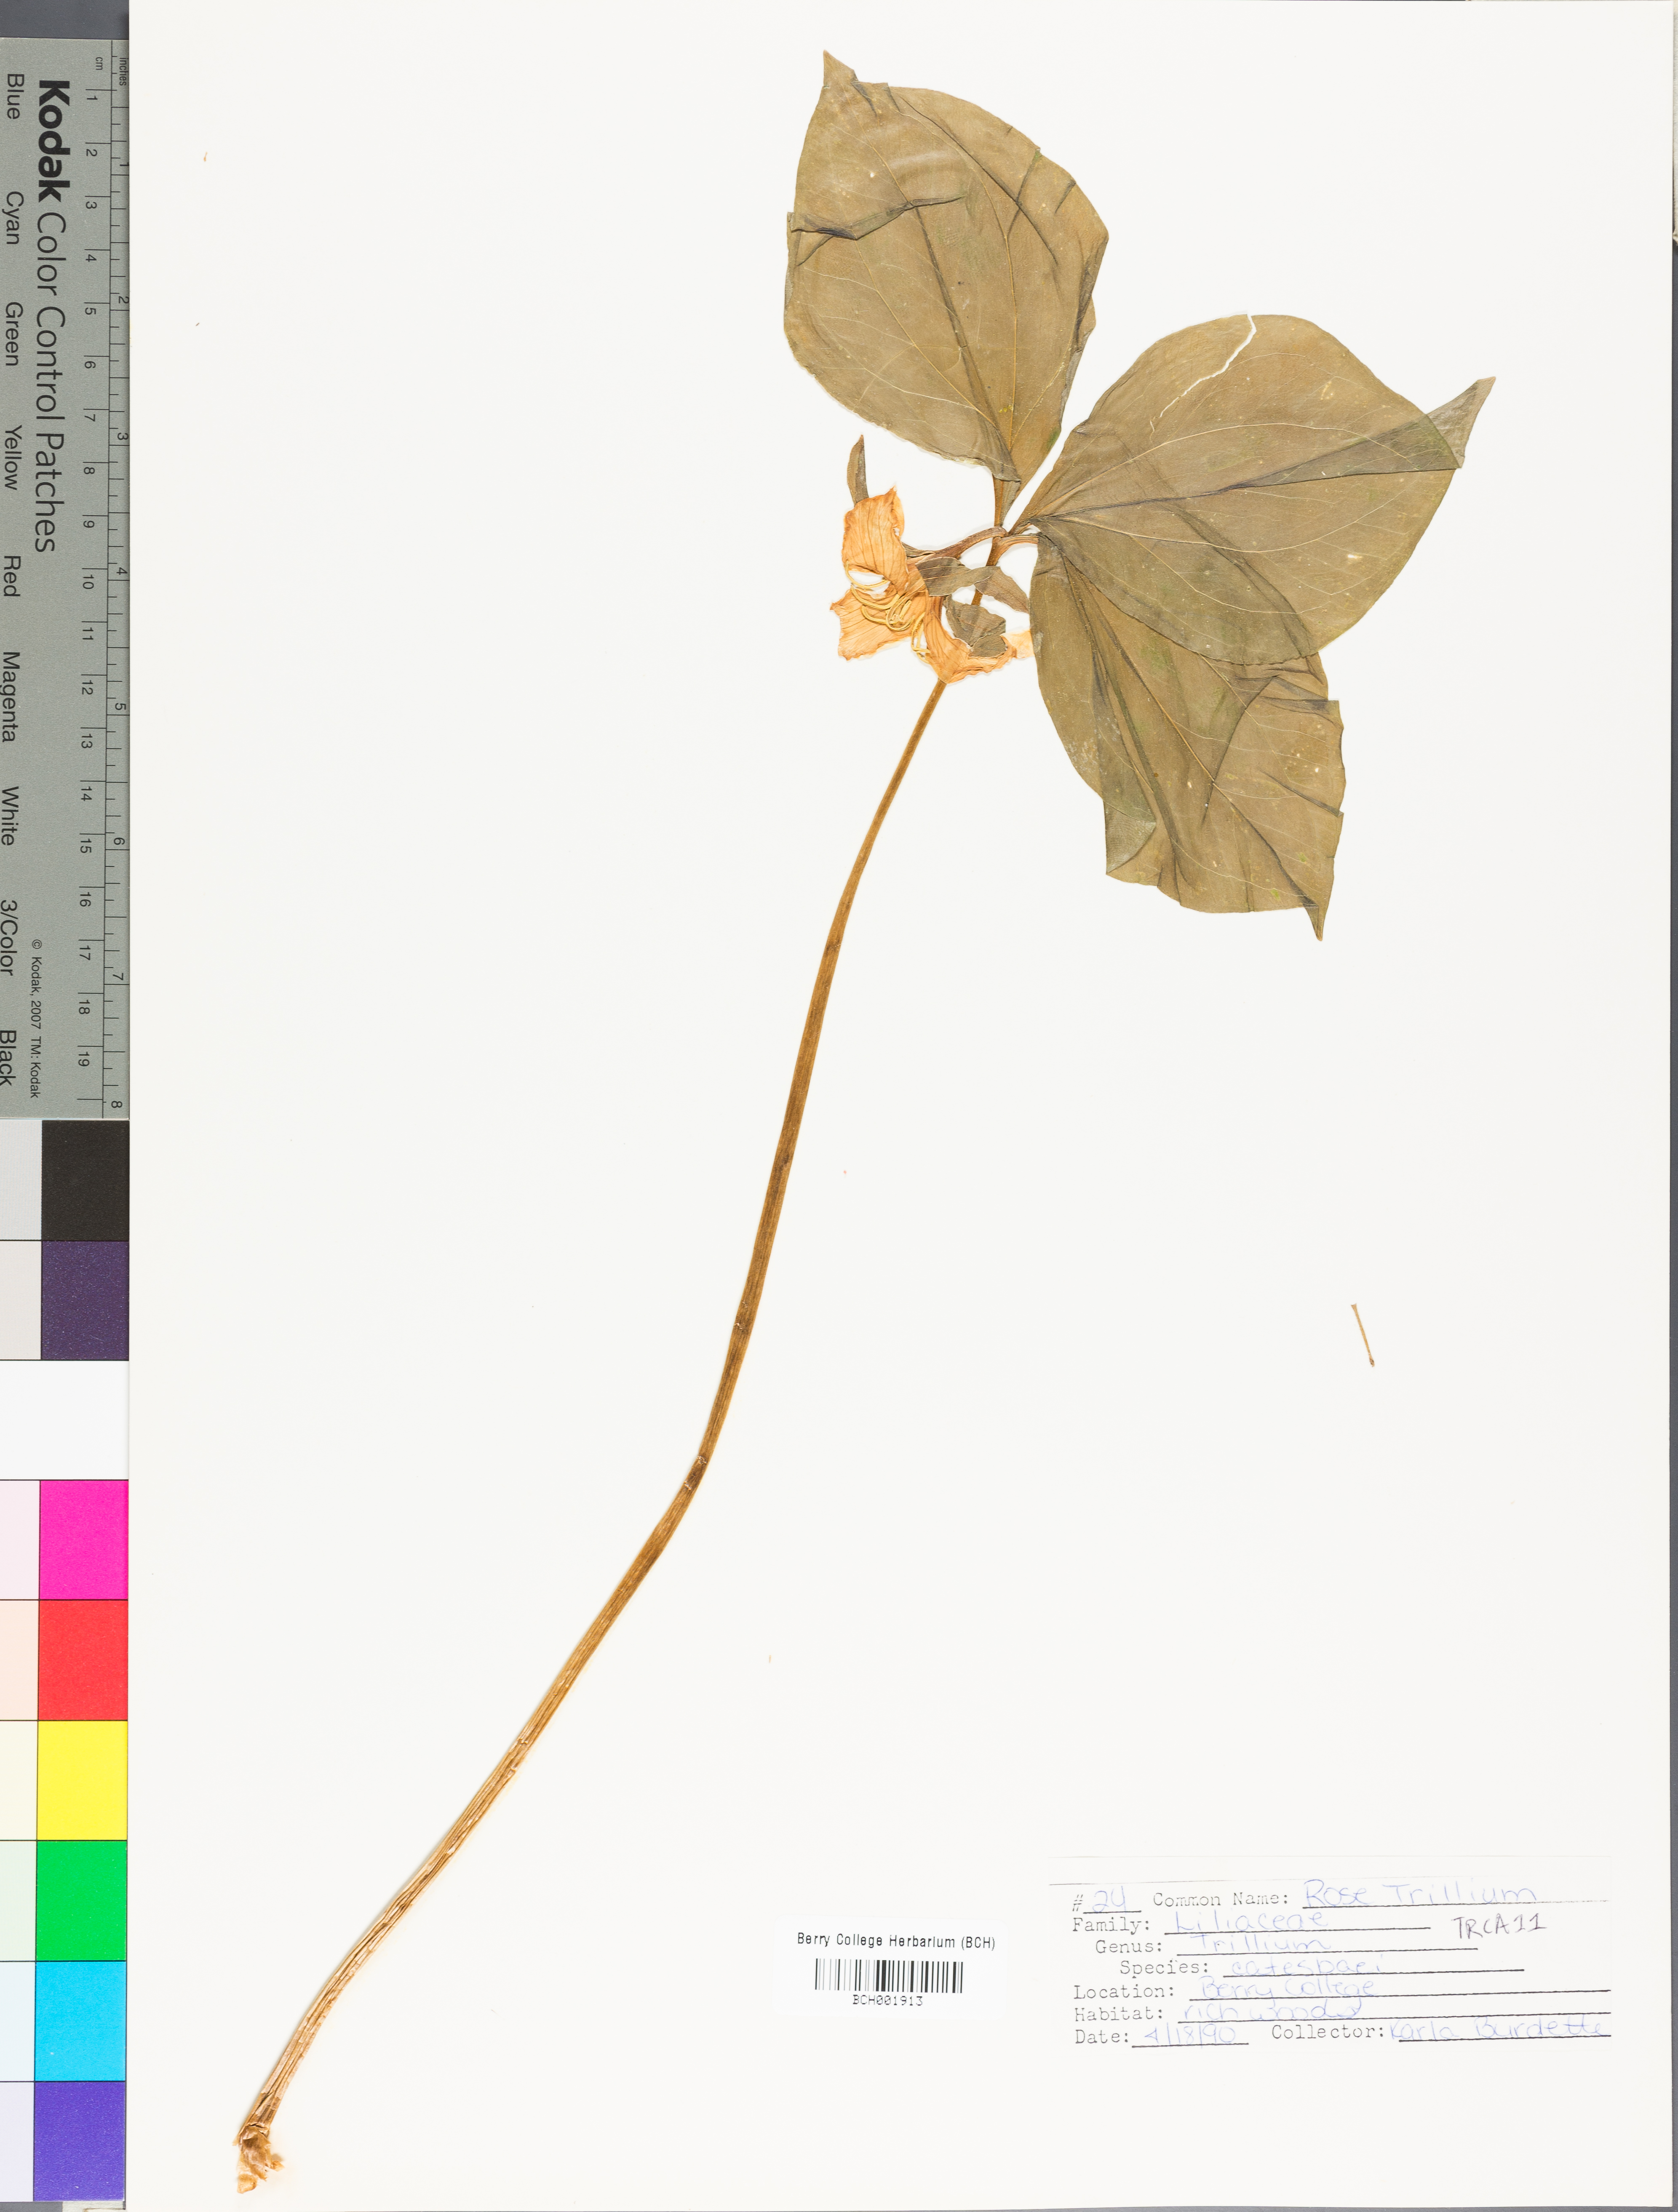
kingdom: Plantae
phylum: Tracheophyta
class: Liliopsida
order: Liliales
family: Melanthiaceae
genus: Trillium
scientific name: Trillium catesbaei
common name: Bashful trillium
